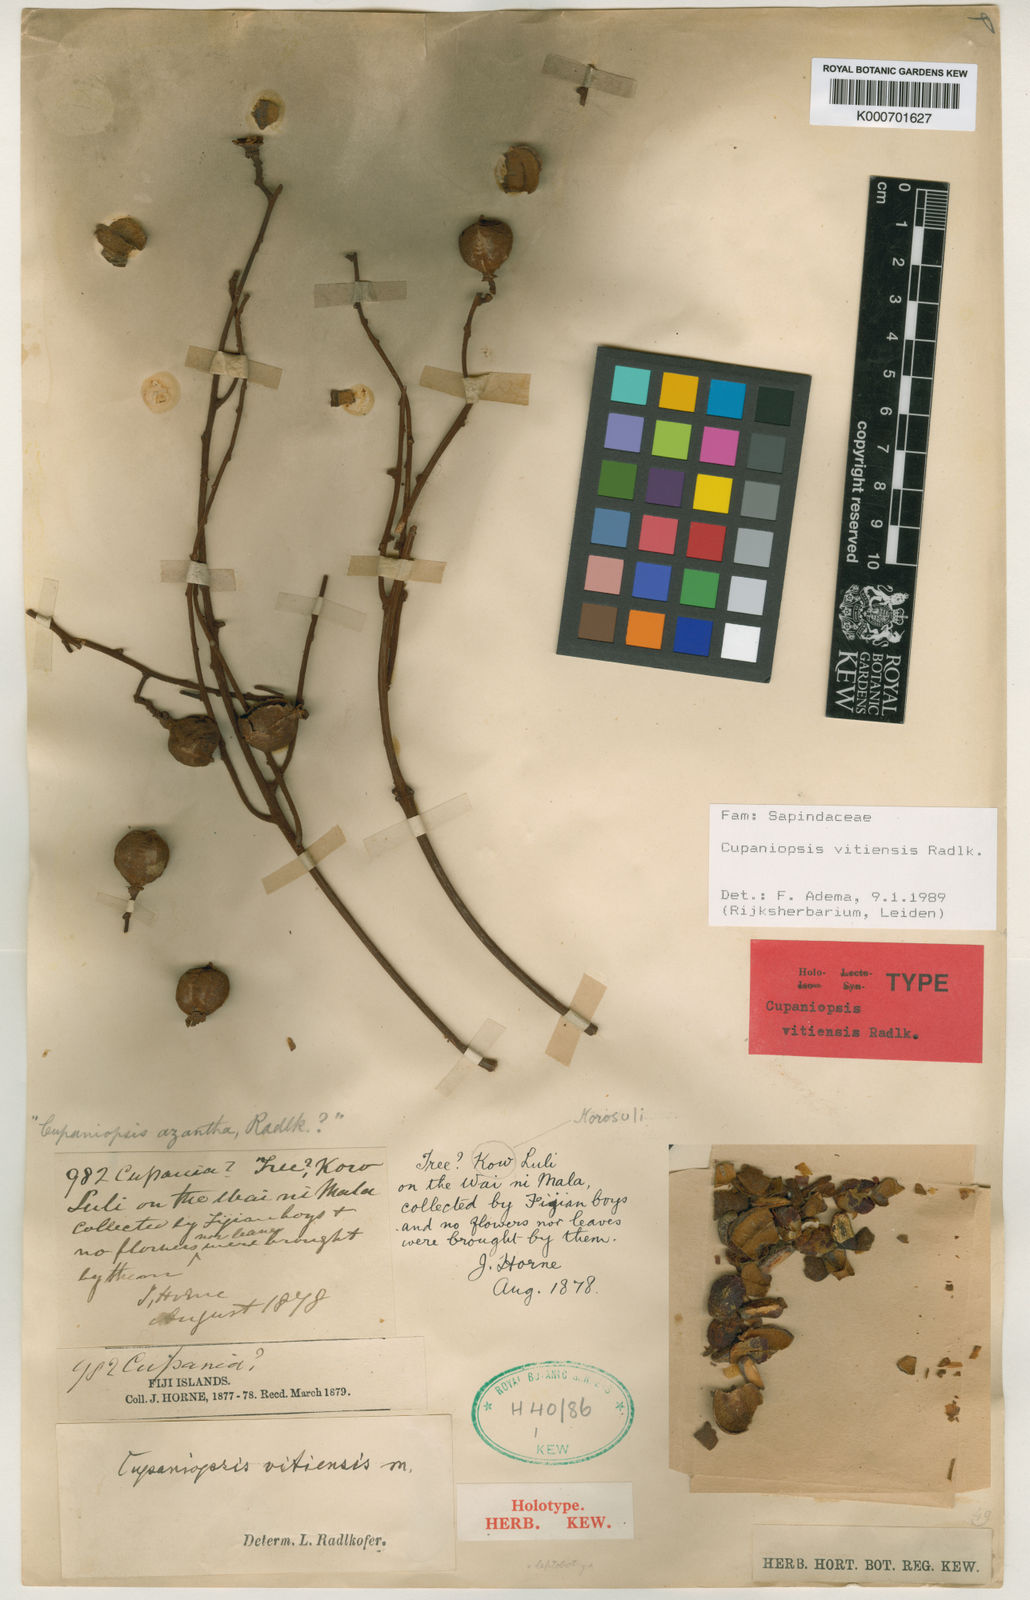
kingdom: Plantae
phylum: Tracheophyta
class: Magnoliopsida
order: Sapindales
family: Sapindaceae
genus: Cupaniopsis
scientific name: Cupaniopsis vitiensis
